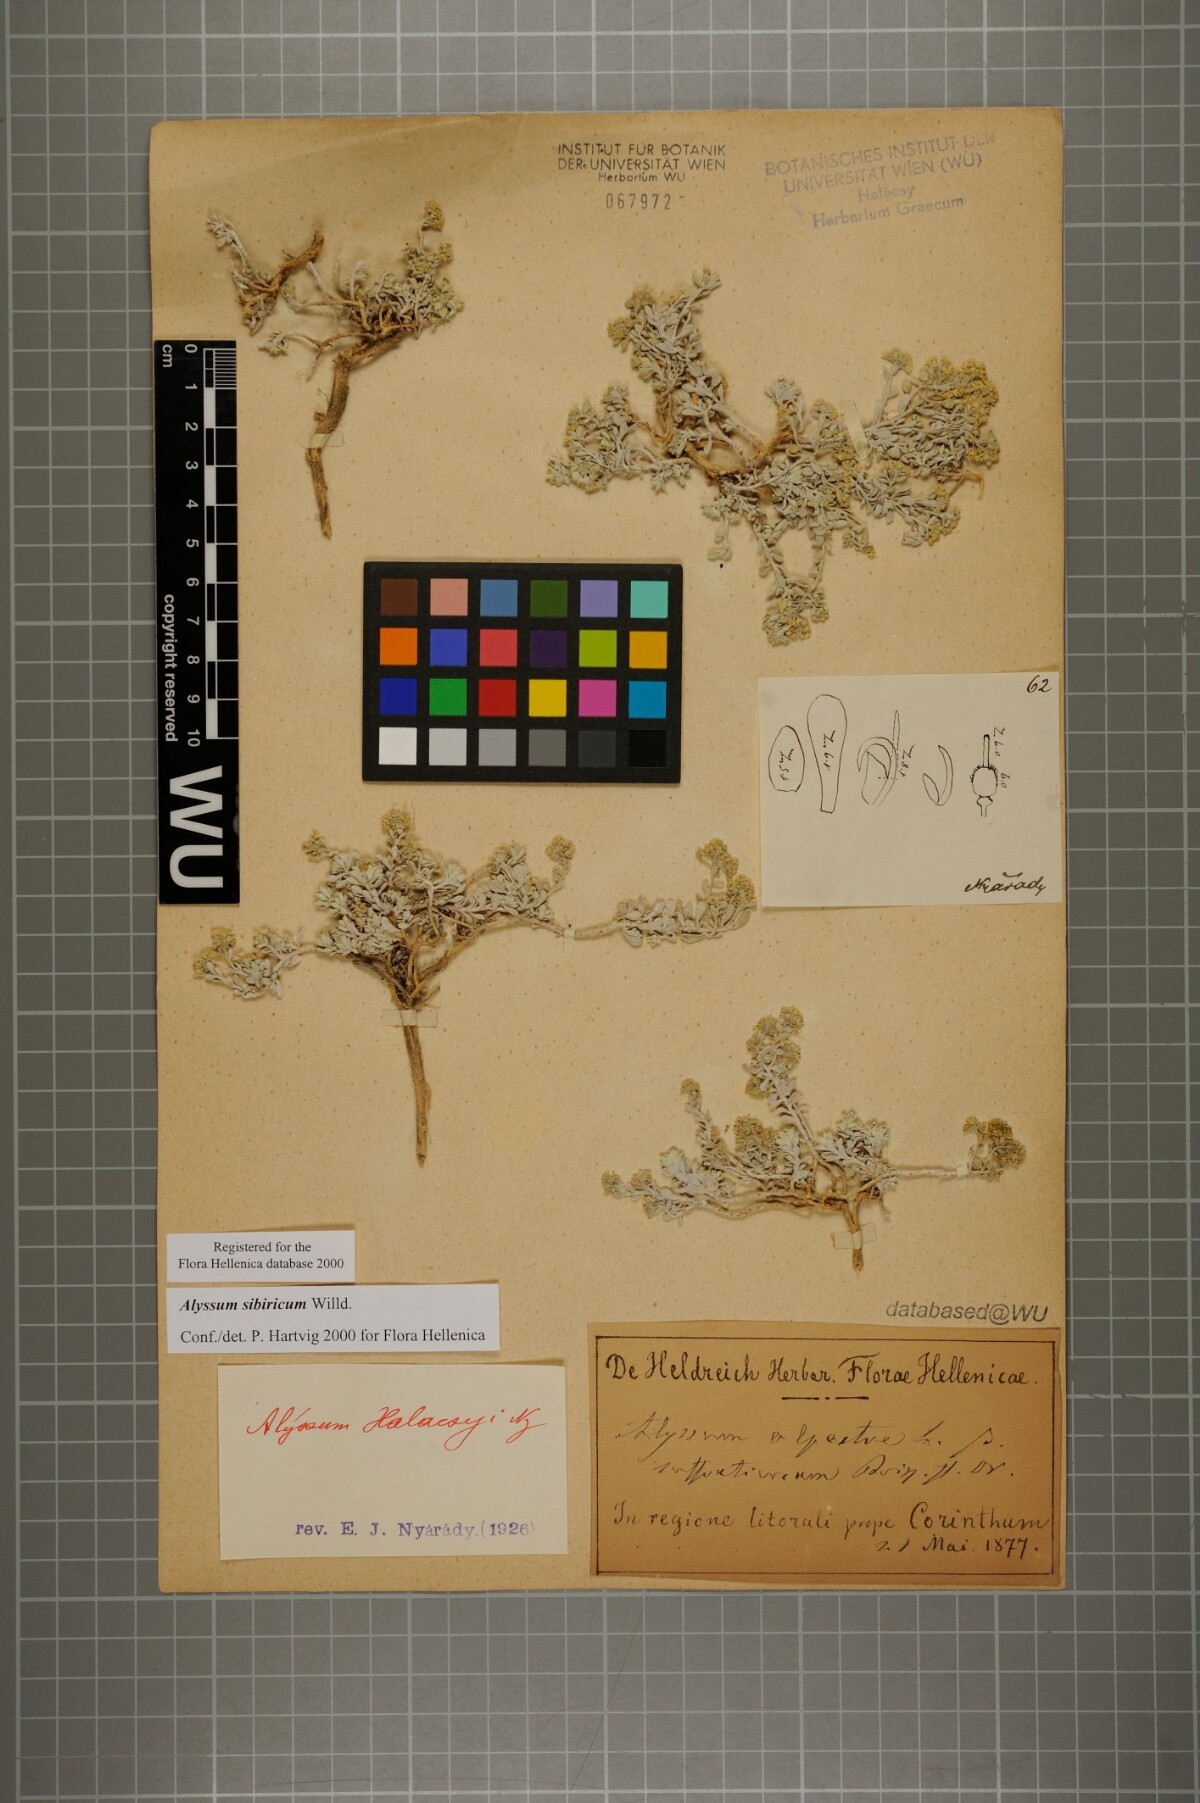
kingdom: Plantae
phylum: Tracheophyta
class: Magnoliopsida
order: Brassicales
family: Brassicaceae
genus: Odontarrhena
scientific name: Odontarrhena sibirica
